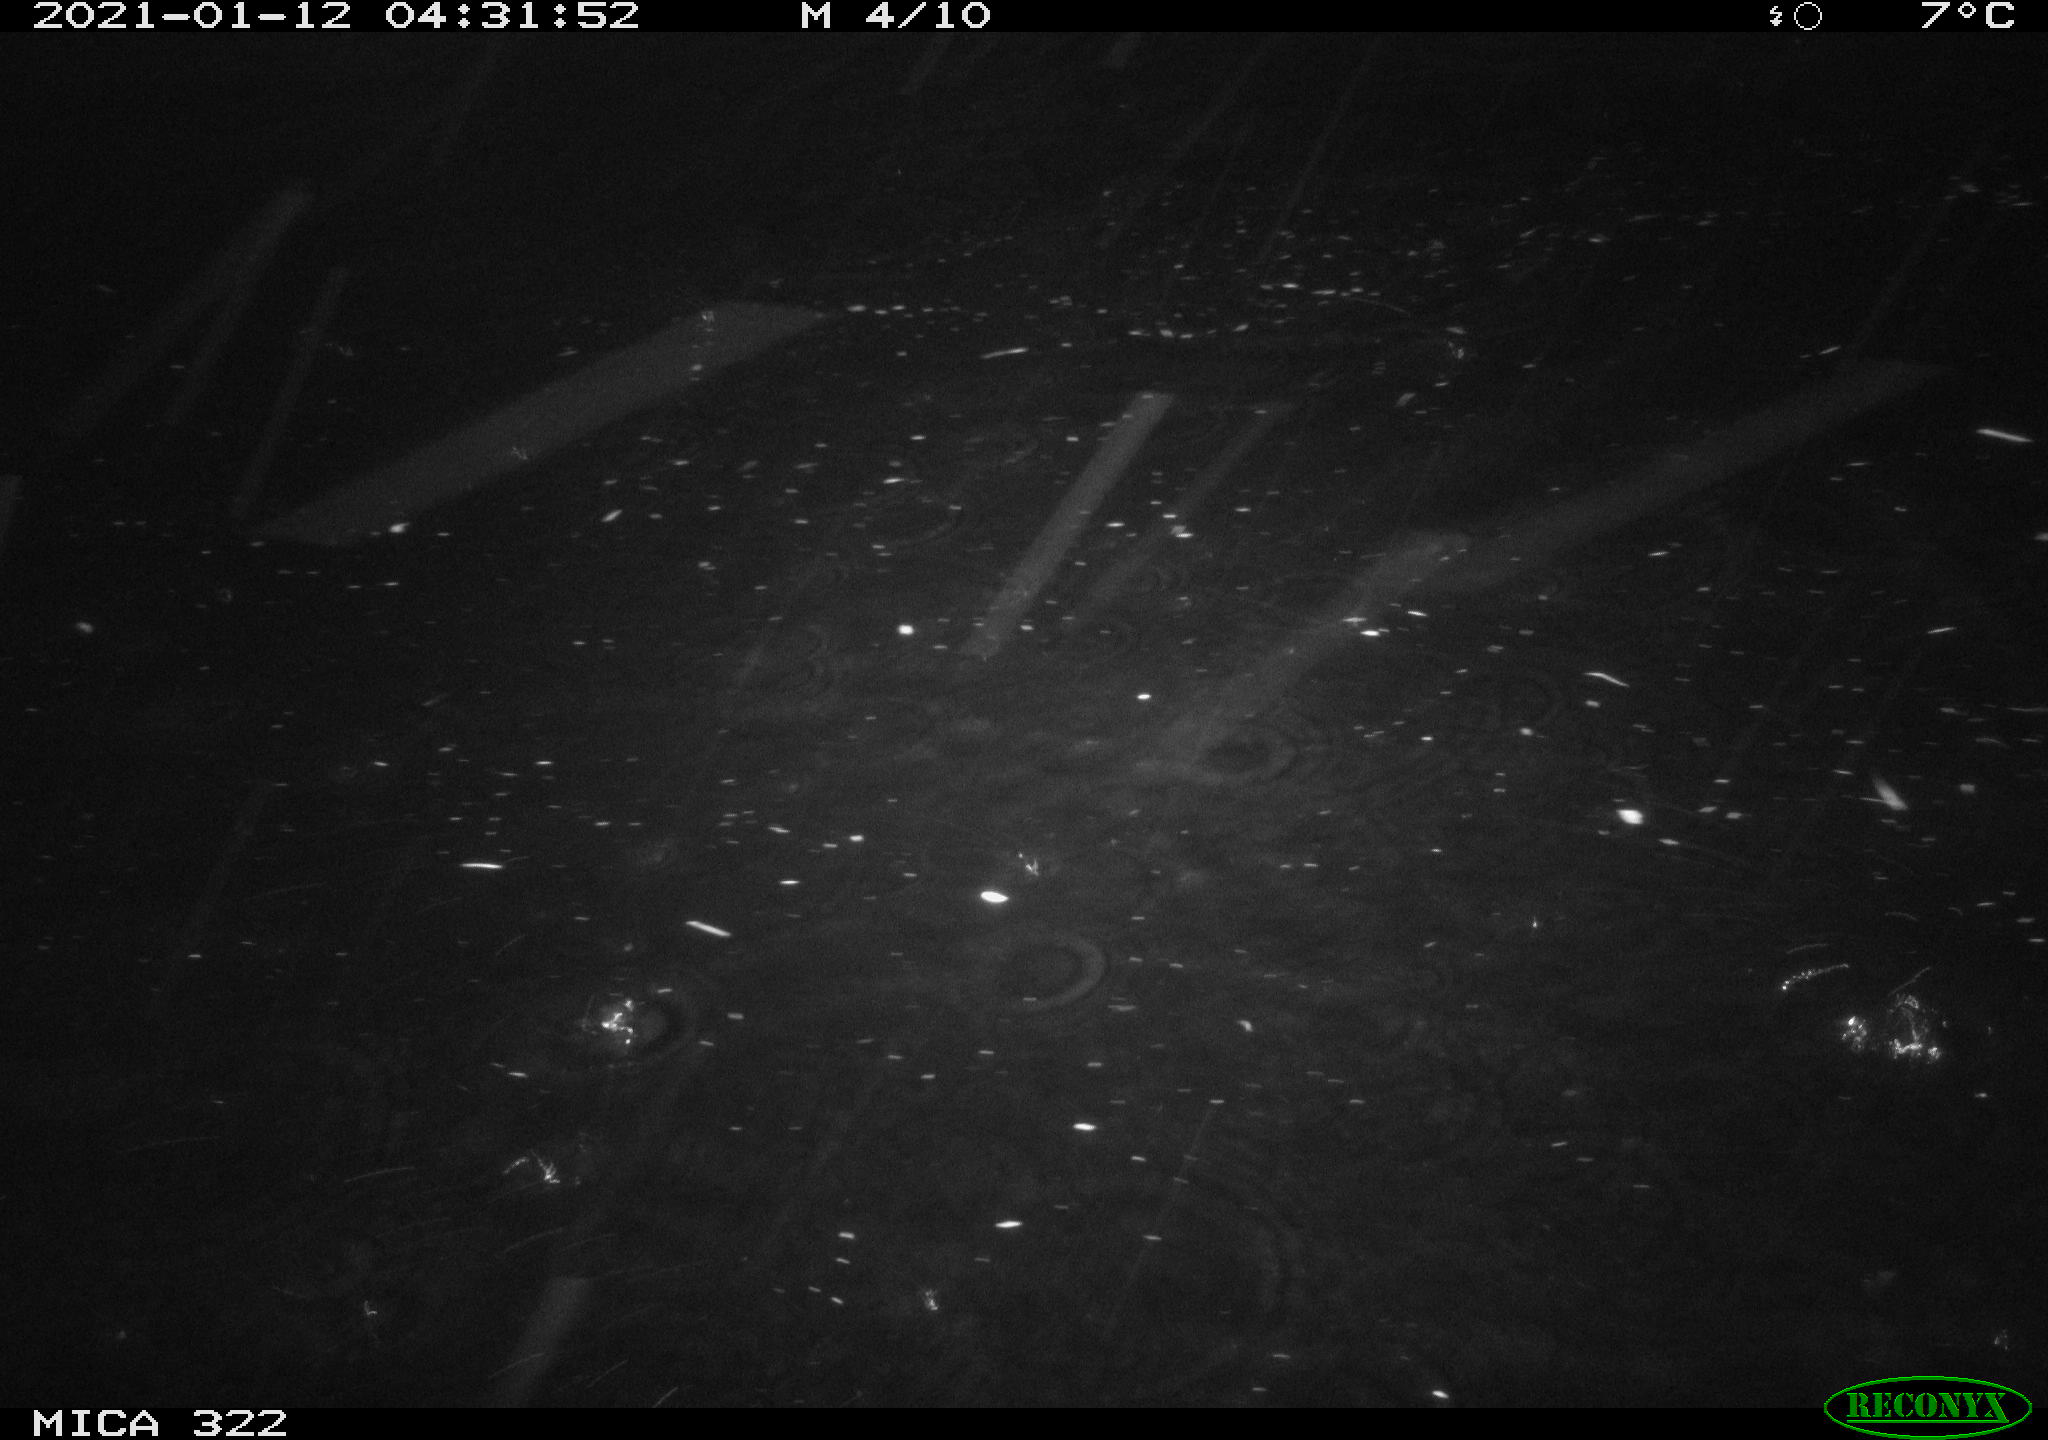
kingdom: Animalia
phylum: Chordata
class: Mammalia
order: Rodentia
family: Muridae
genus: Rattus
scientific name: Rattus norvegicus
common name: Brown rat
